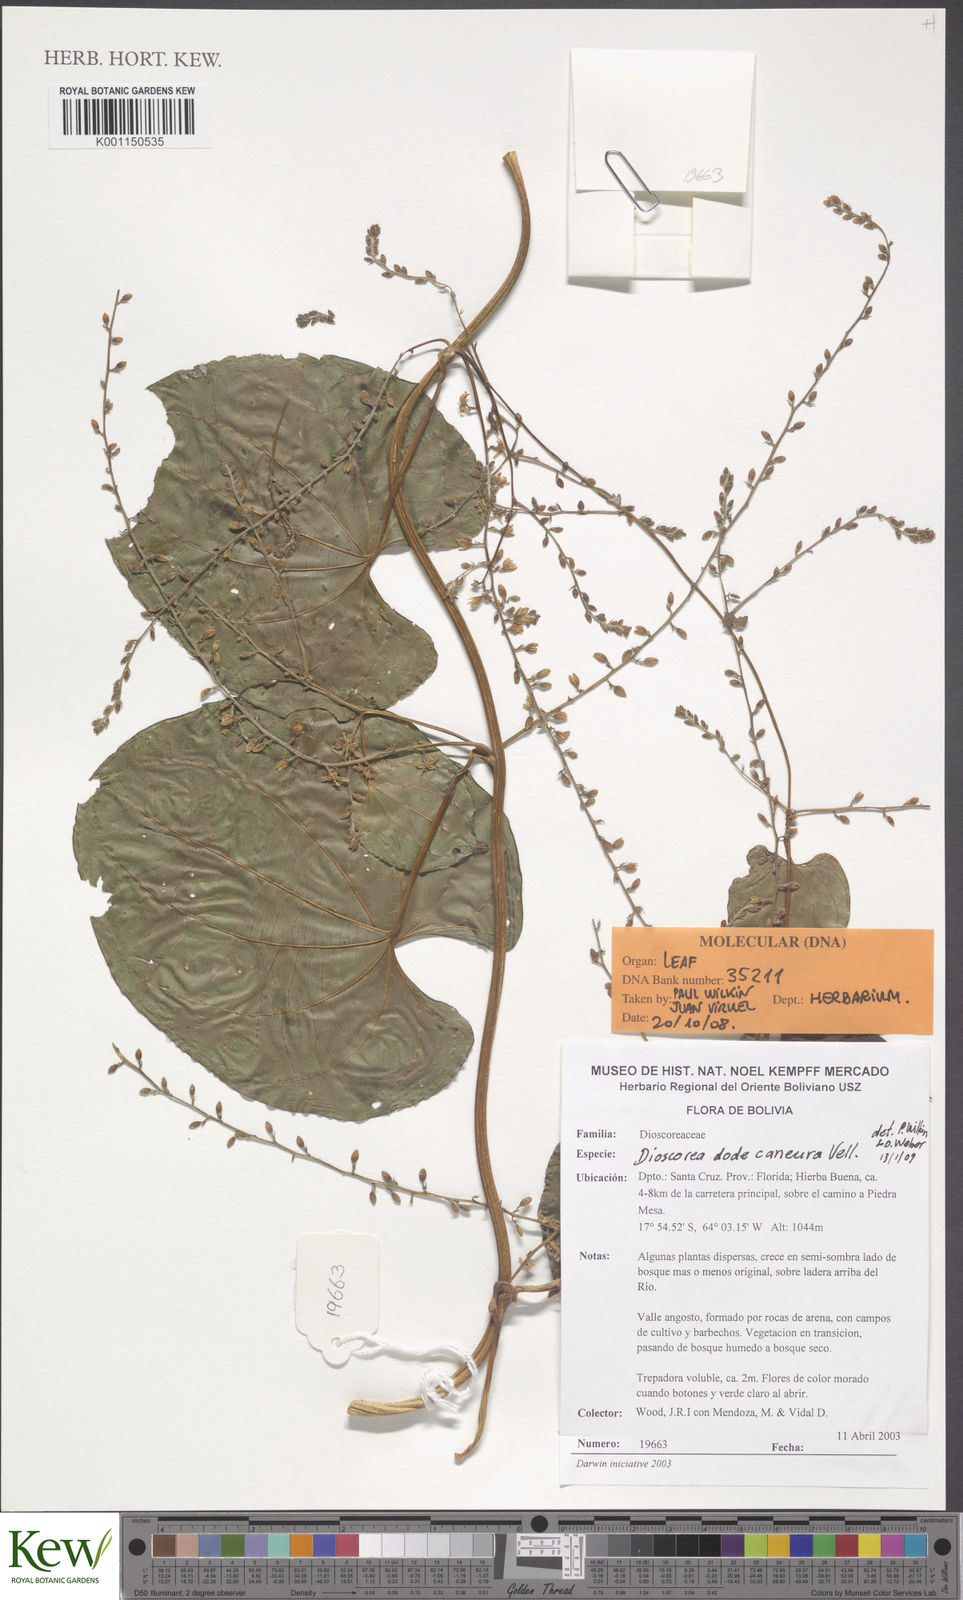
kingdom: Plantae
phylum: Tracheophyta
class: Liliopsida
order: Dioscoreales
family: Dioscoreaceae
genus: Dioscorea
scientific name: Dioscorea dodecaneura
